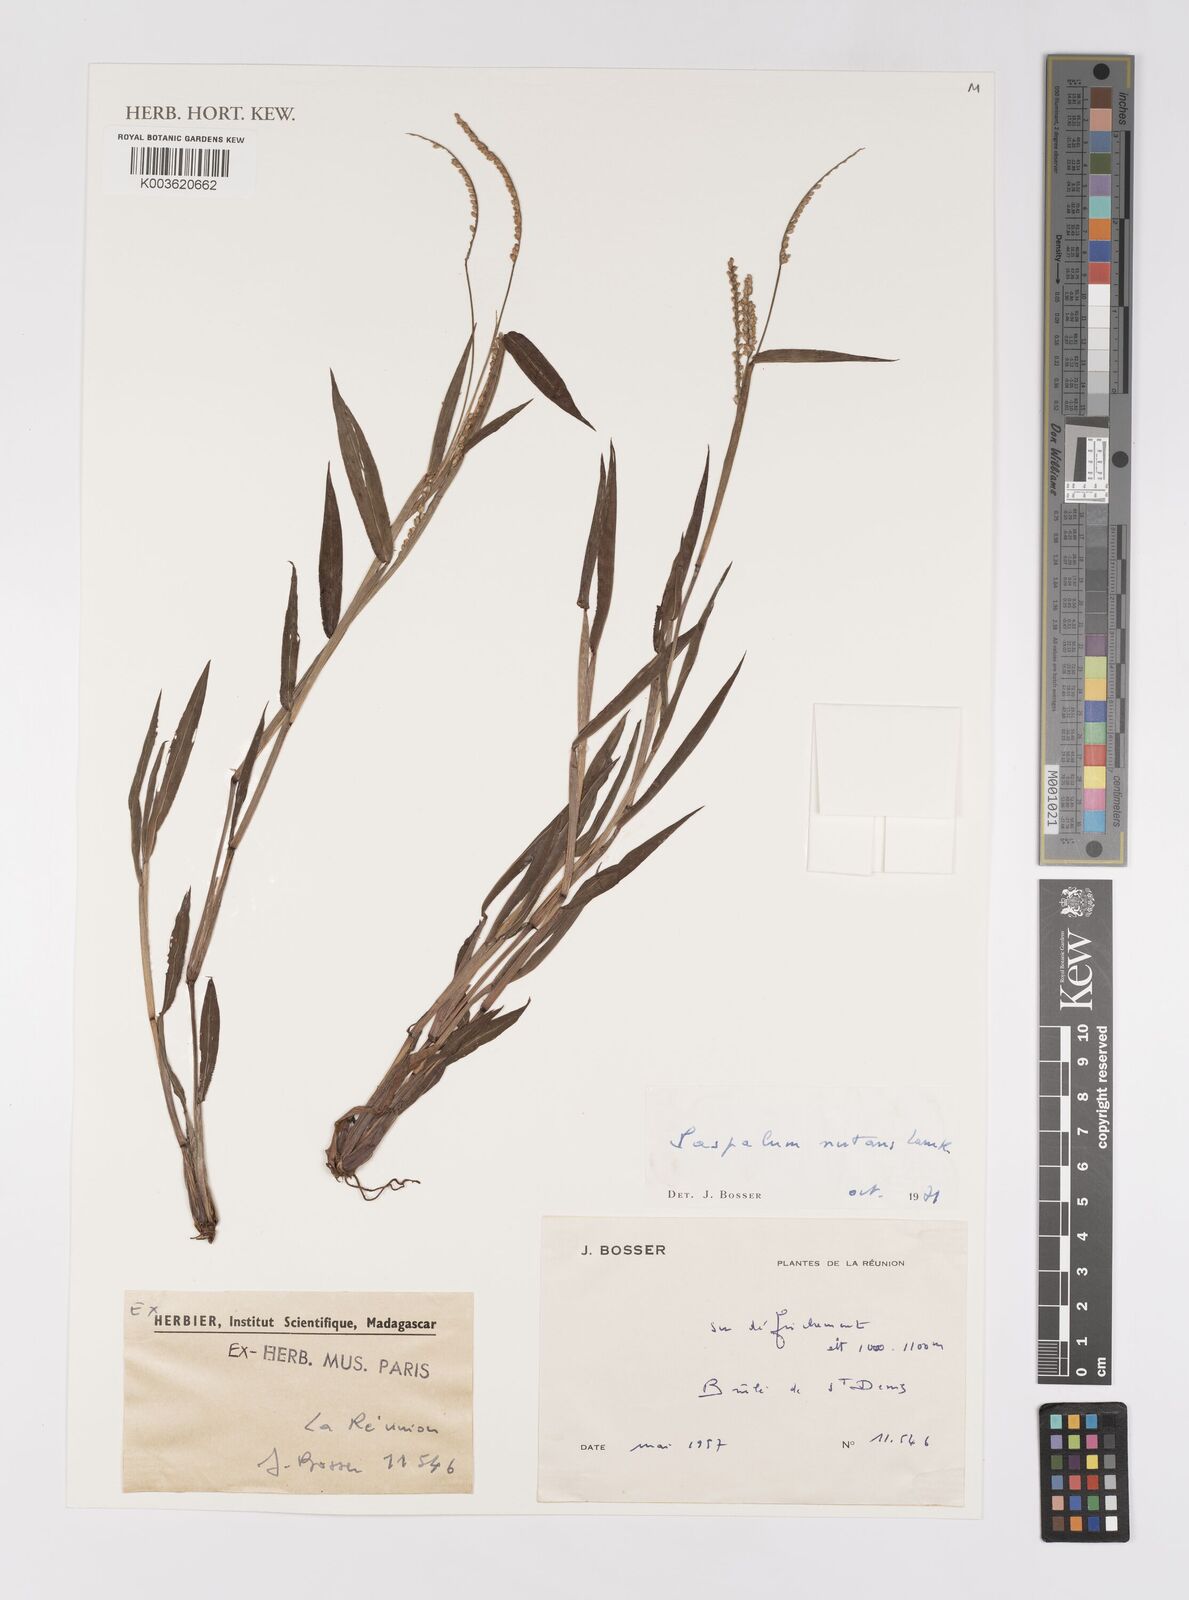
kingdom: Plantae
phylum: Tracheophyta
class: Liliopsida
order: Poales
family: Poaceae
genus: Paspalum
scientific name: Paspalum nutans
